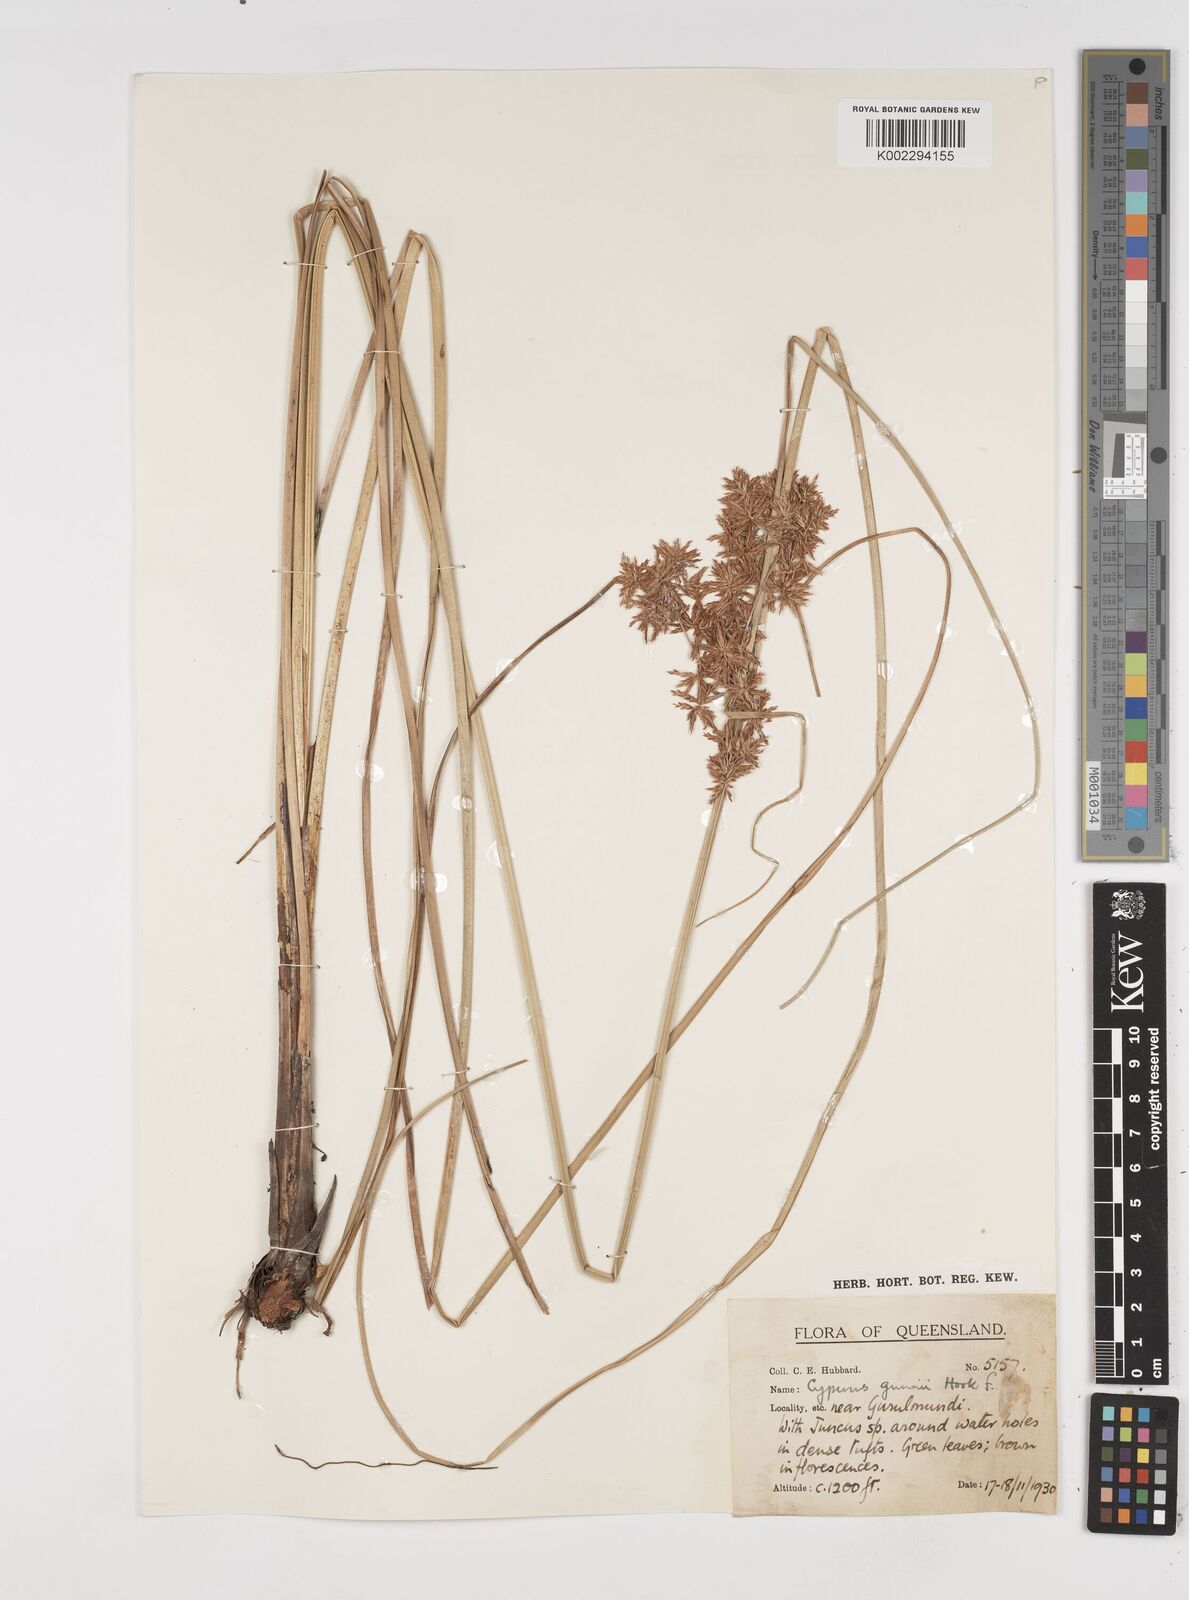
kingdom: Plantae
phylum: Tracheophyta
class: Liliopsida
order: Poales
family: Cyperaceae
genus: Cyperus
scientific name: Cyperus gunnii
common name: Flecked flat-sedge
